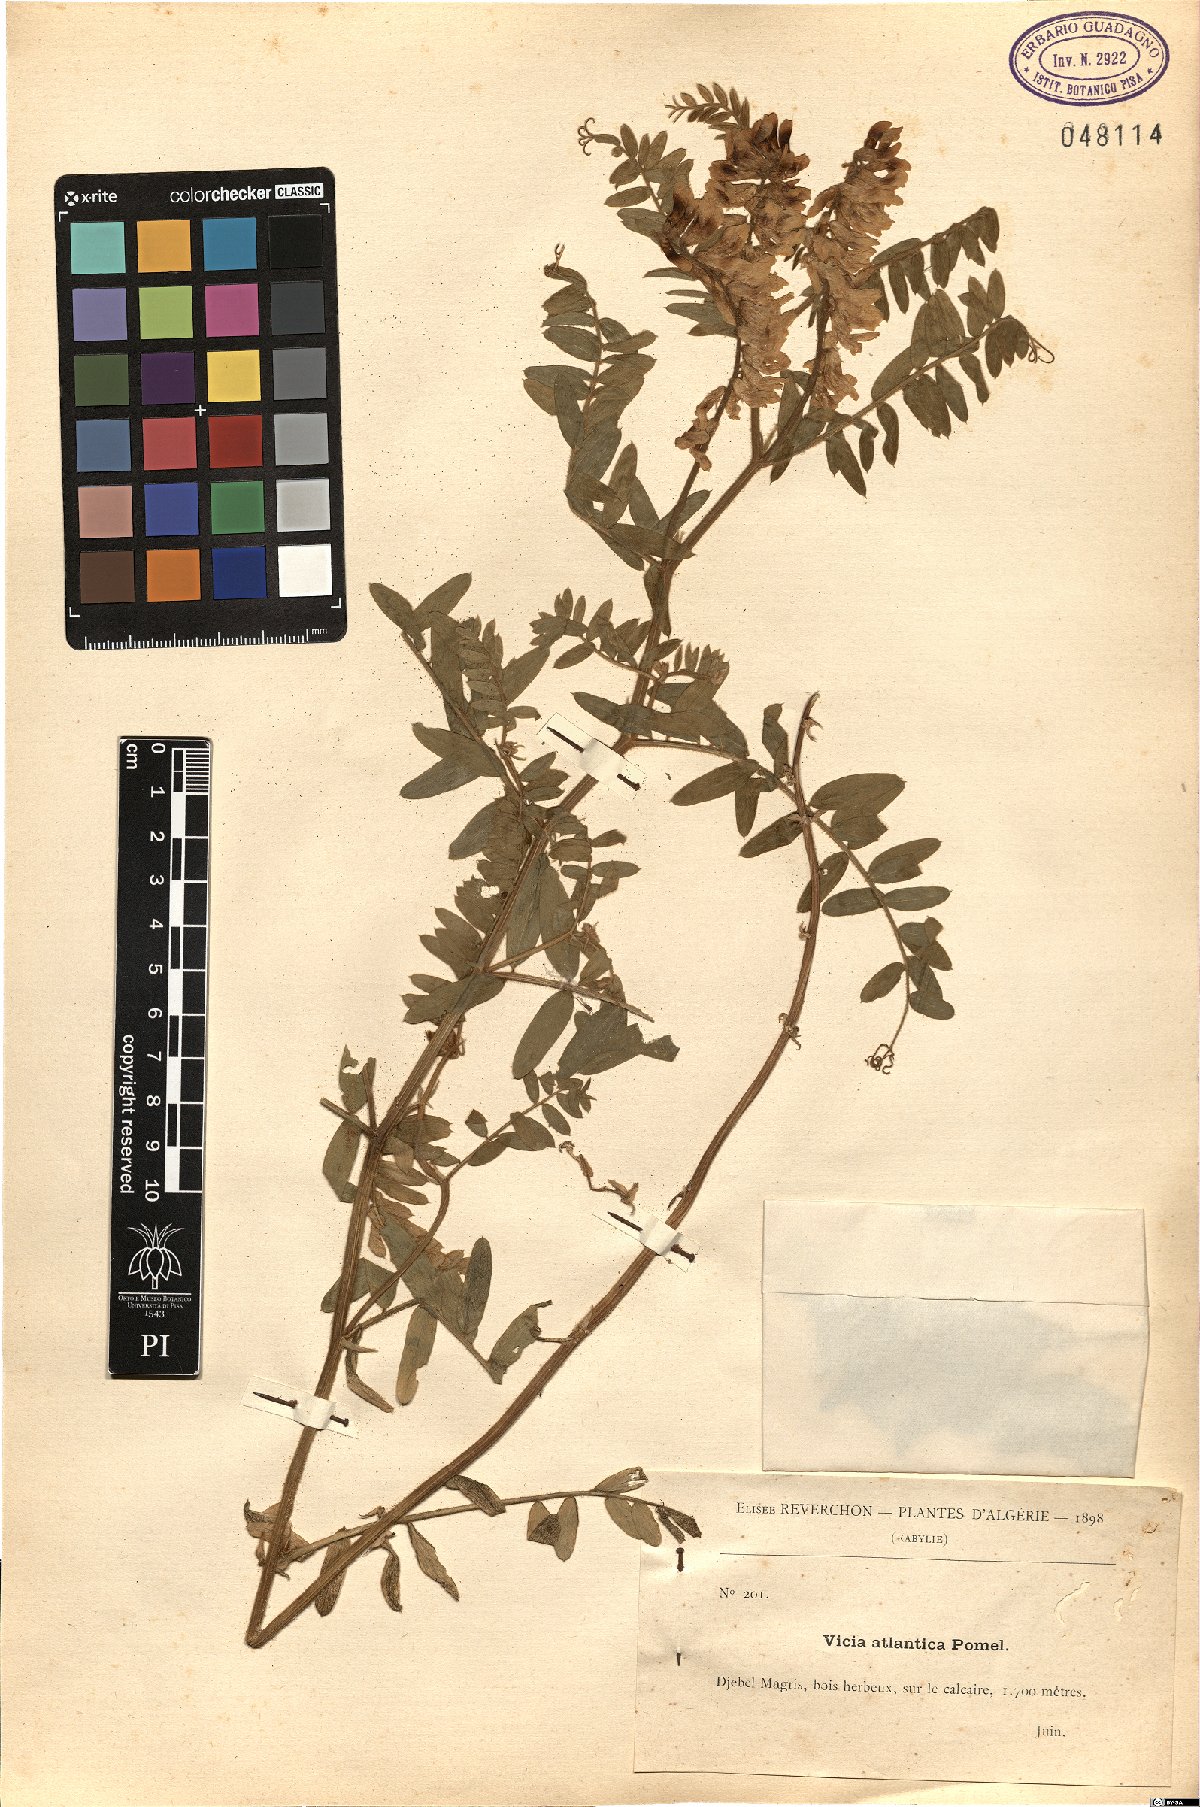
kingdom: Plantae
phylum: Tracheophyta
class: Magnoliopsida
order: Fabales
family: Fabaceae
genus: Vicia
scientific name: Vicia ochroleuca
